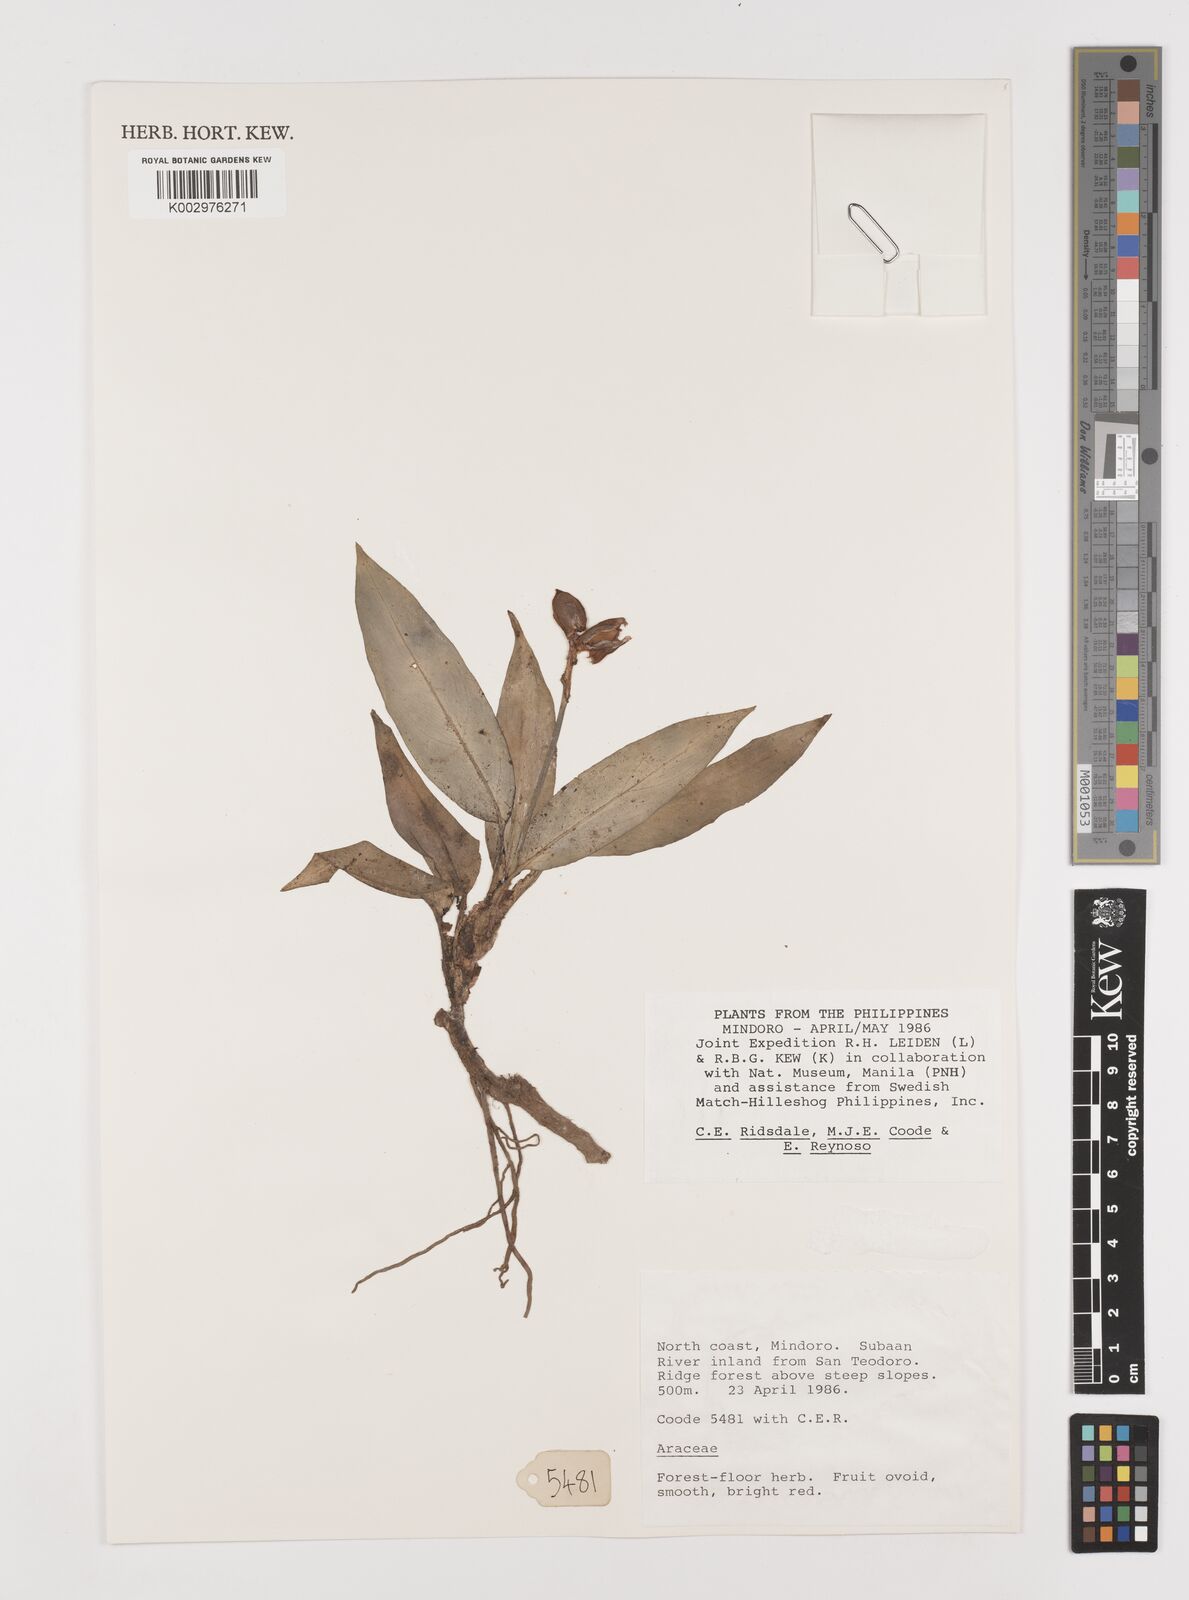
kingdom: Plantae
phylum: Tracheophyta
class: Liliopsida
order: Alismatales
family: Araceae
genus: Aglaonema
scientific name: Aglaonema philippinense
